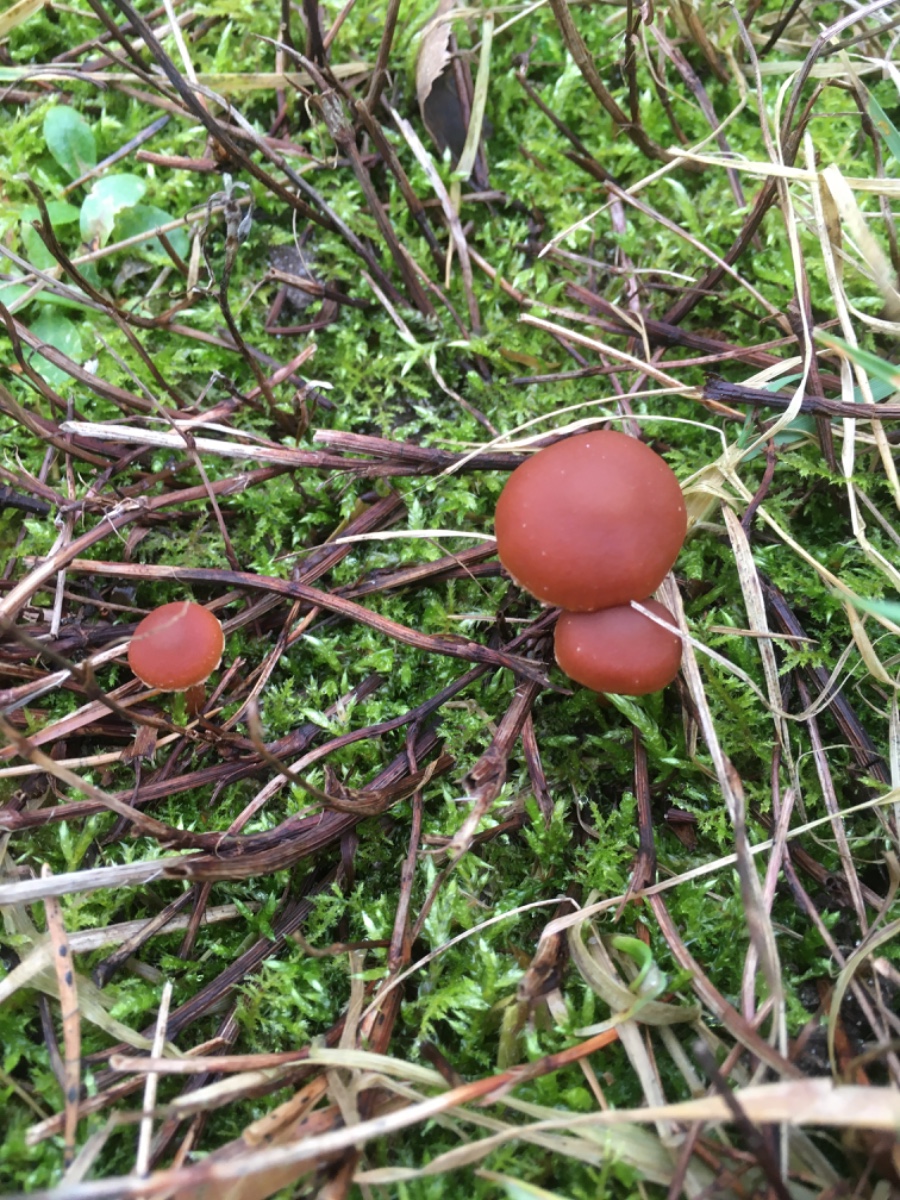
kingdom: Fungi
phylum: Basidiomycota
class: Agaricomycetes
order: Agaricales
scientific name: Agaricales
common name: champignonordenen
